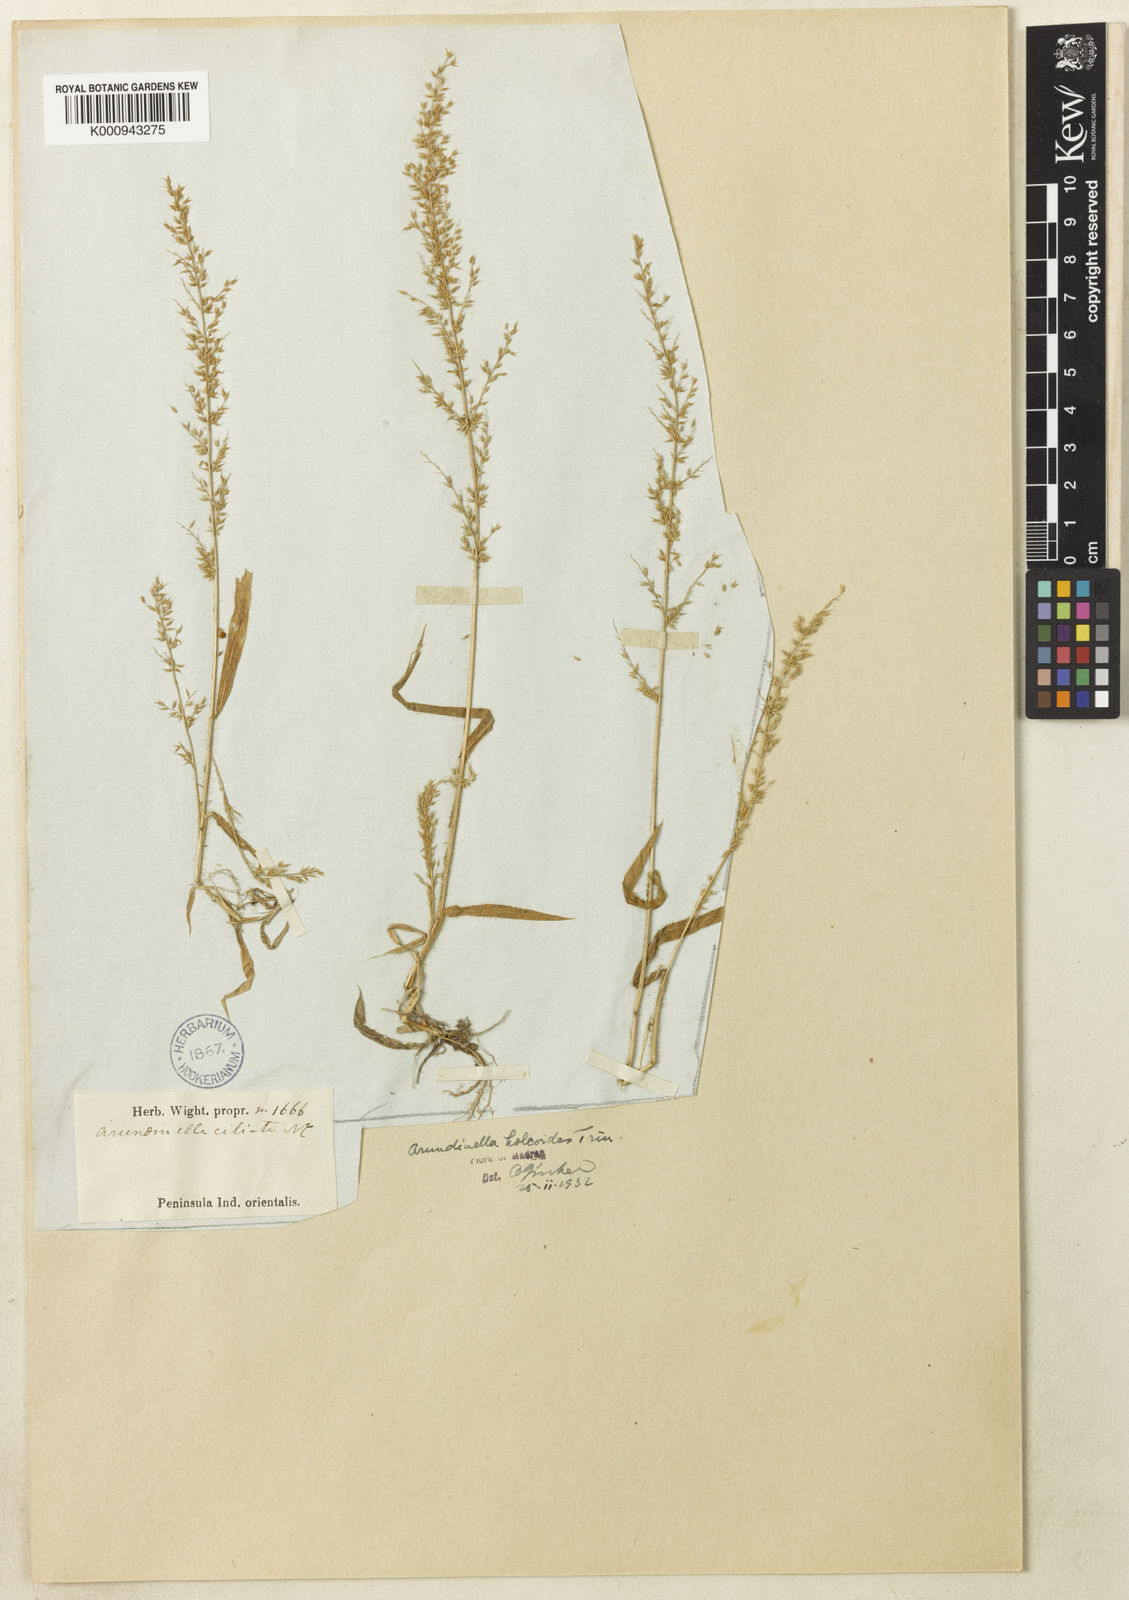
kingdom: Plantae
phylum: Tracheophyta
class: Liliopsida
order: Poales
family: Poaceae
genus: Arundinella
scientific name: Arundinella ciliata
